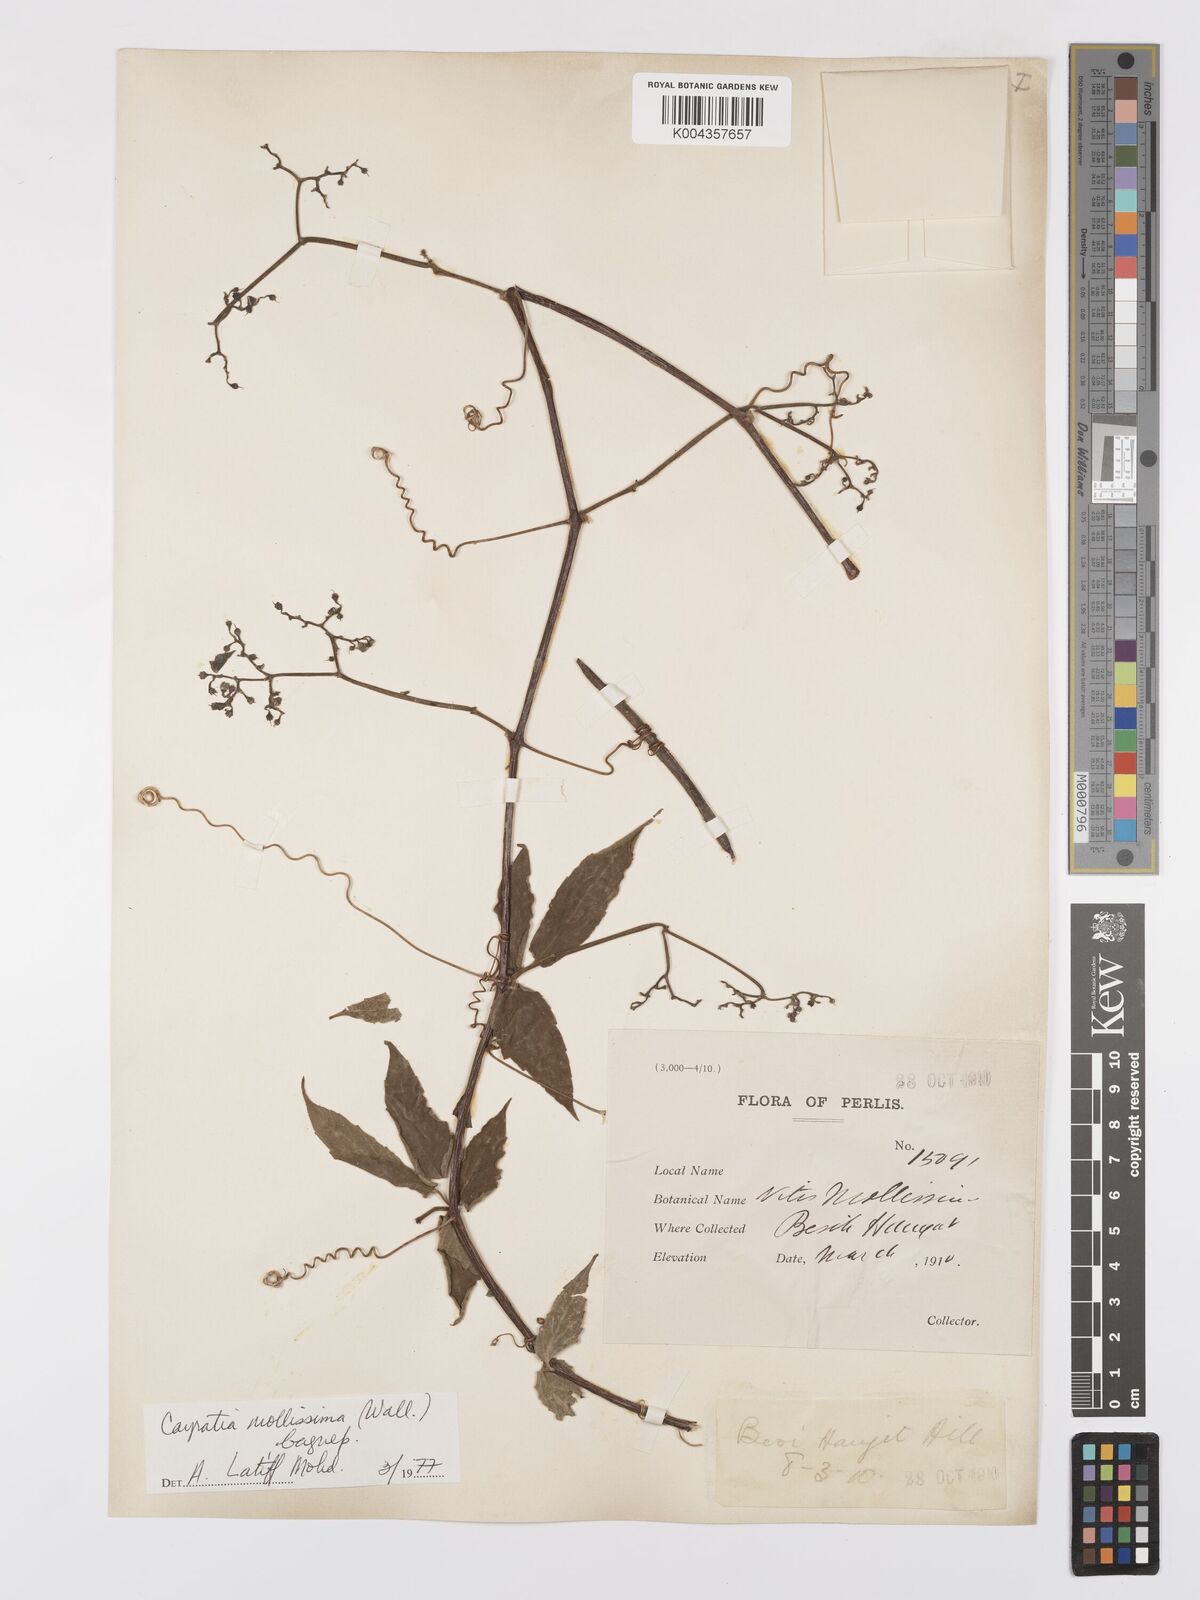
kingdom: Plantae
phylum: Tracheophyta
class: Magnoliopsida
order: Vitales
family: Vitaceae
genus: Cayratia
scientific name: Cayratia mollissima
